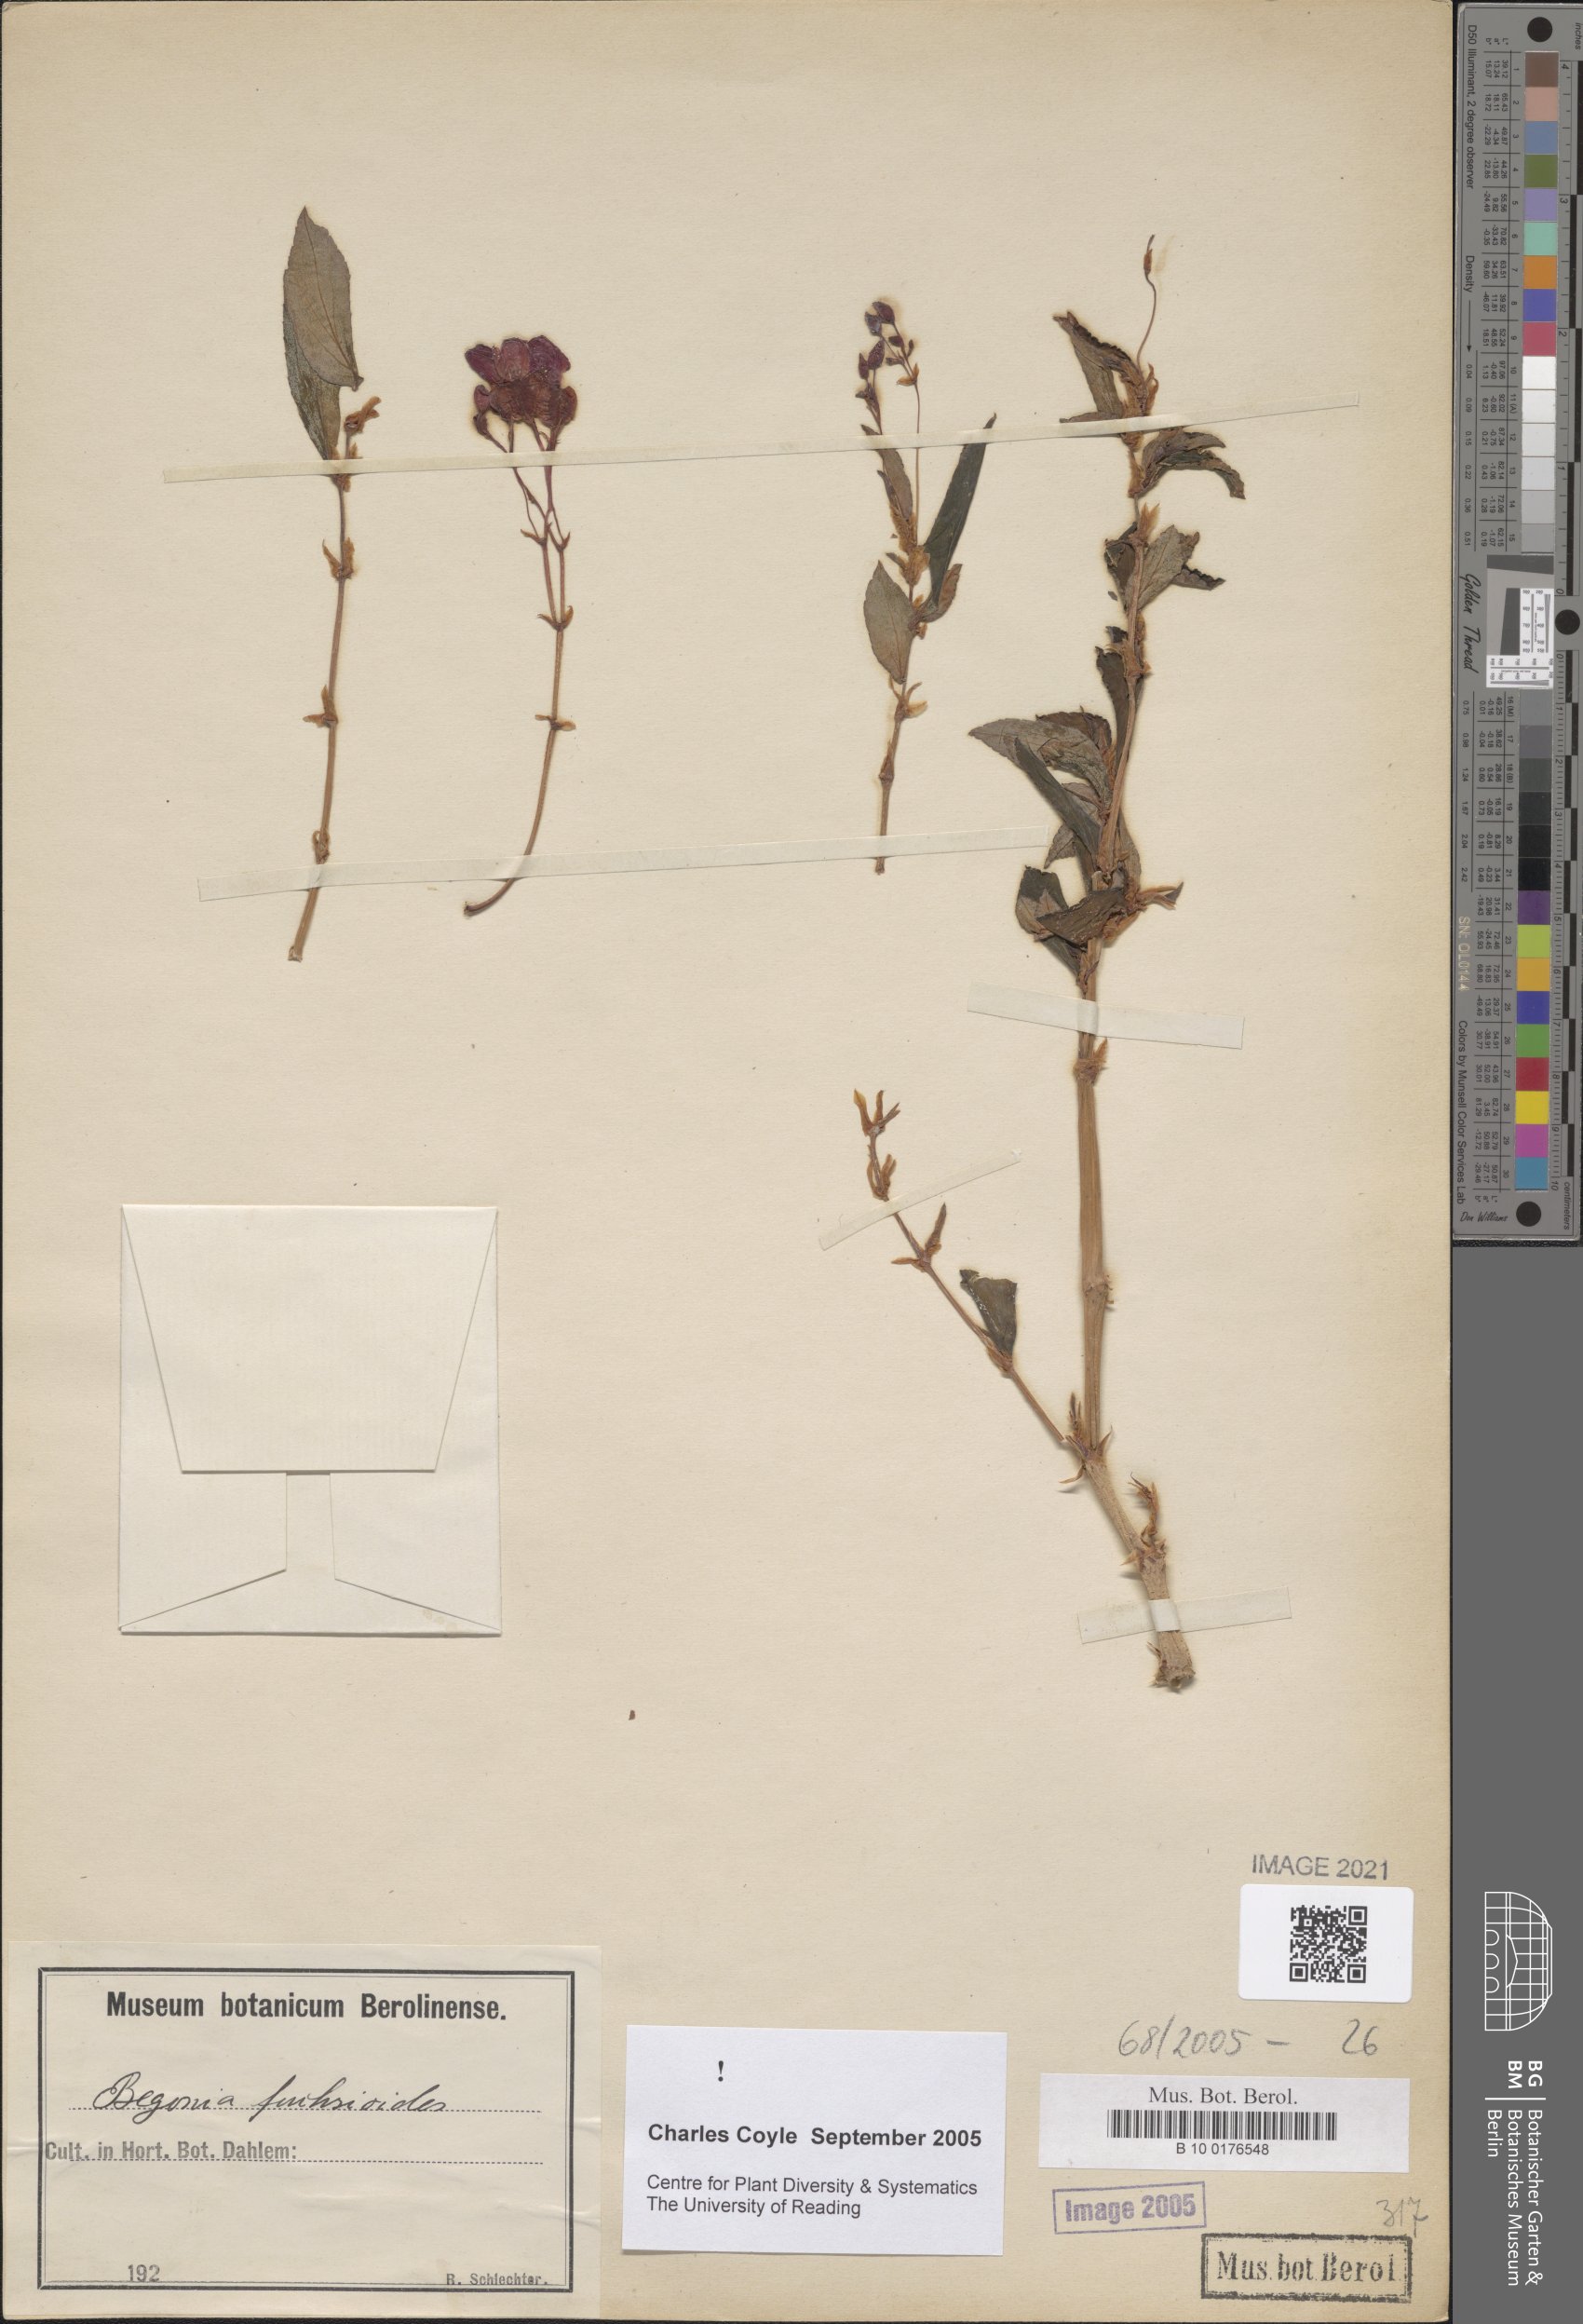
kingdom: Plantae
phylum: Tracheophyta
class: Magnoliopsida
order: Cucurbitales
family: Begoniaceae
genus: Begonia
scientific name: Begonia fuchsioides
